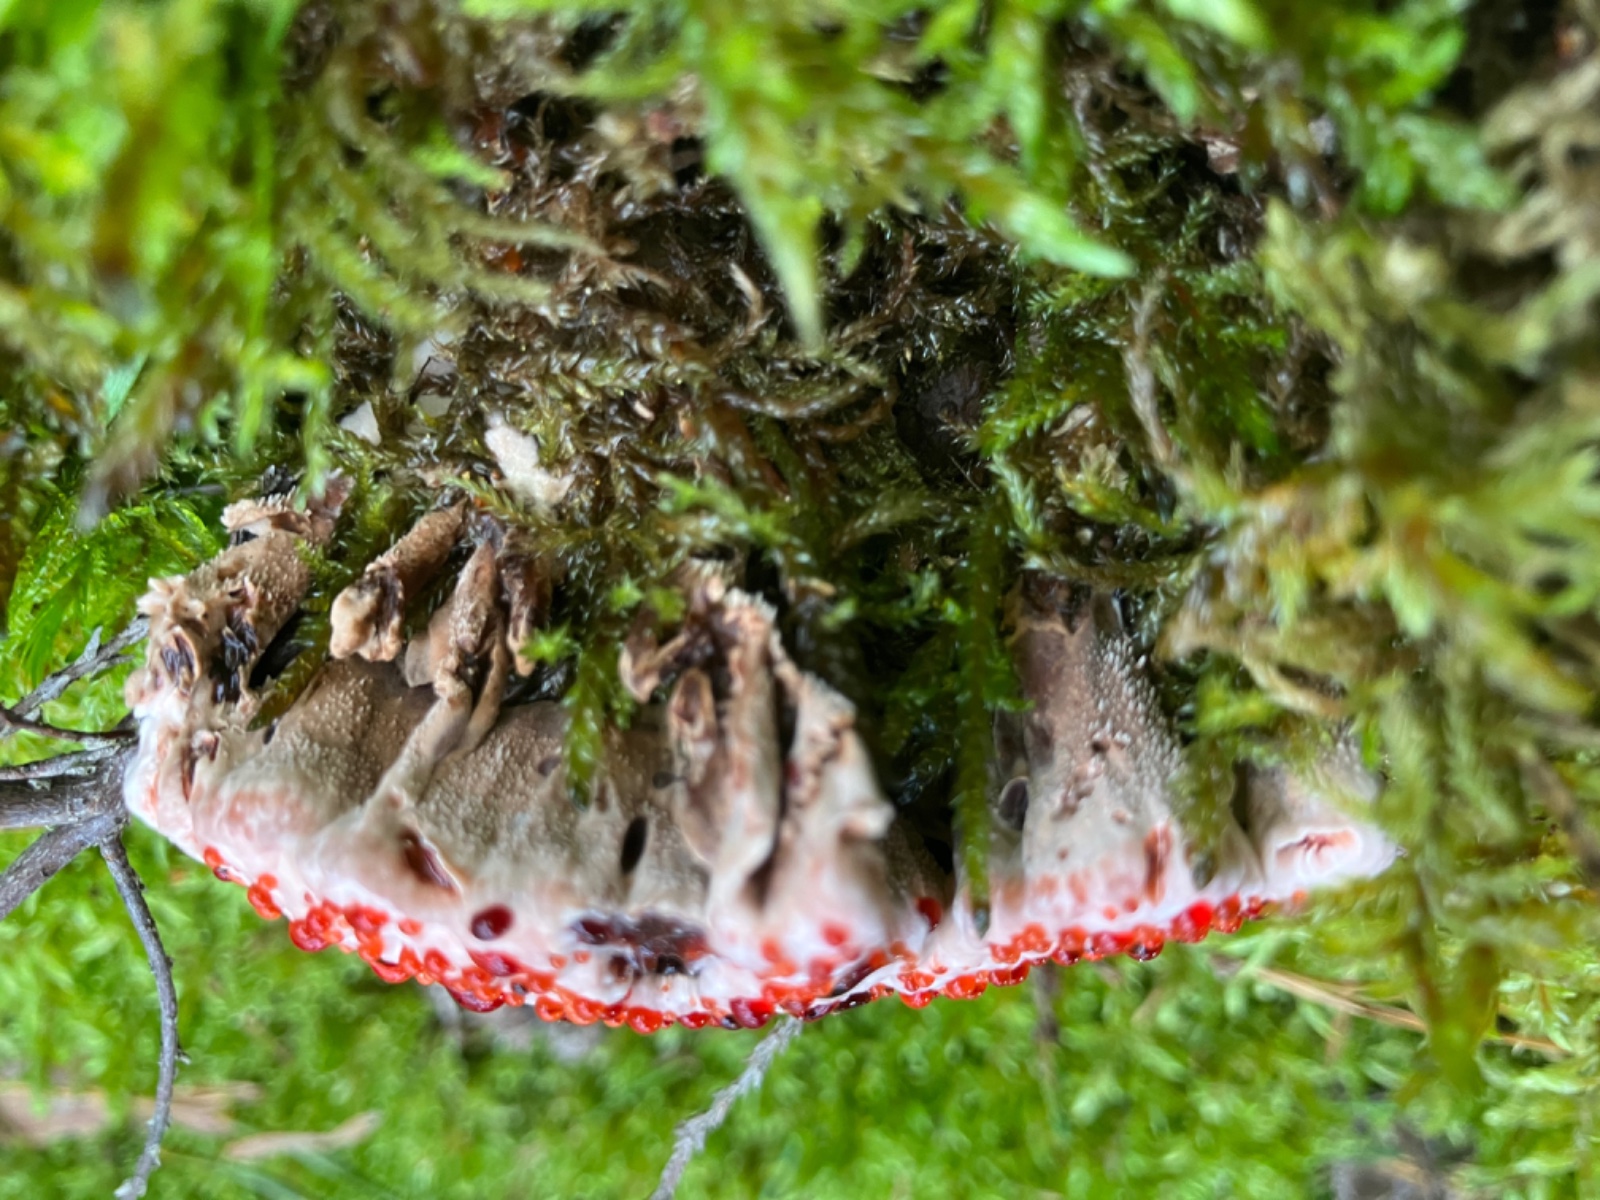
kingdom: Fungi
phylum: Basidiomycota
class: Agaricomycetes
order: Thelephorales
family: Bankeraceae
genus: Hydnellum
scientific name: Hydnellum peckii
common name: bitter korkpigsvamp
